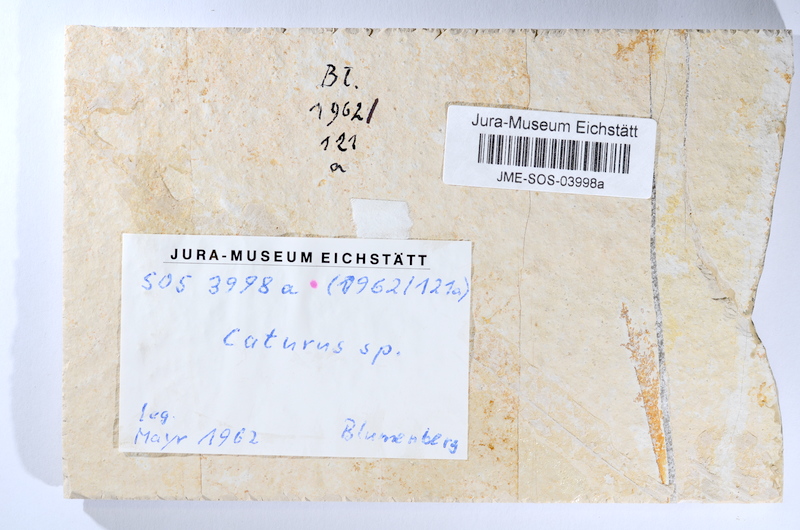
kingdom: Animalia
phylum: Chordata
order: Amiiformes
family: Caturidae
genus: Caturus
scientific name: Caturus
